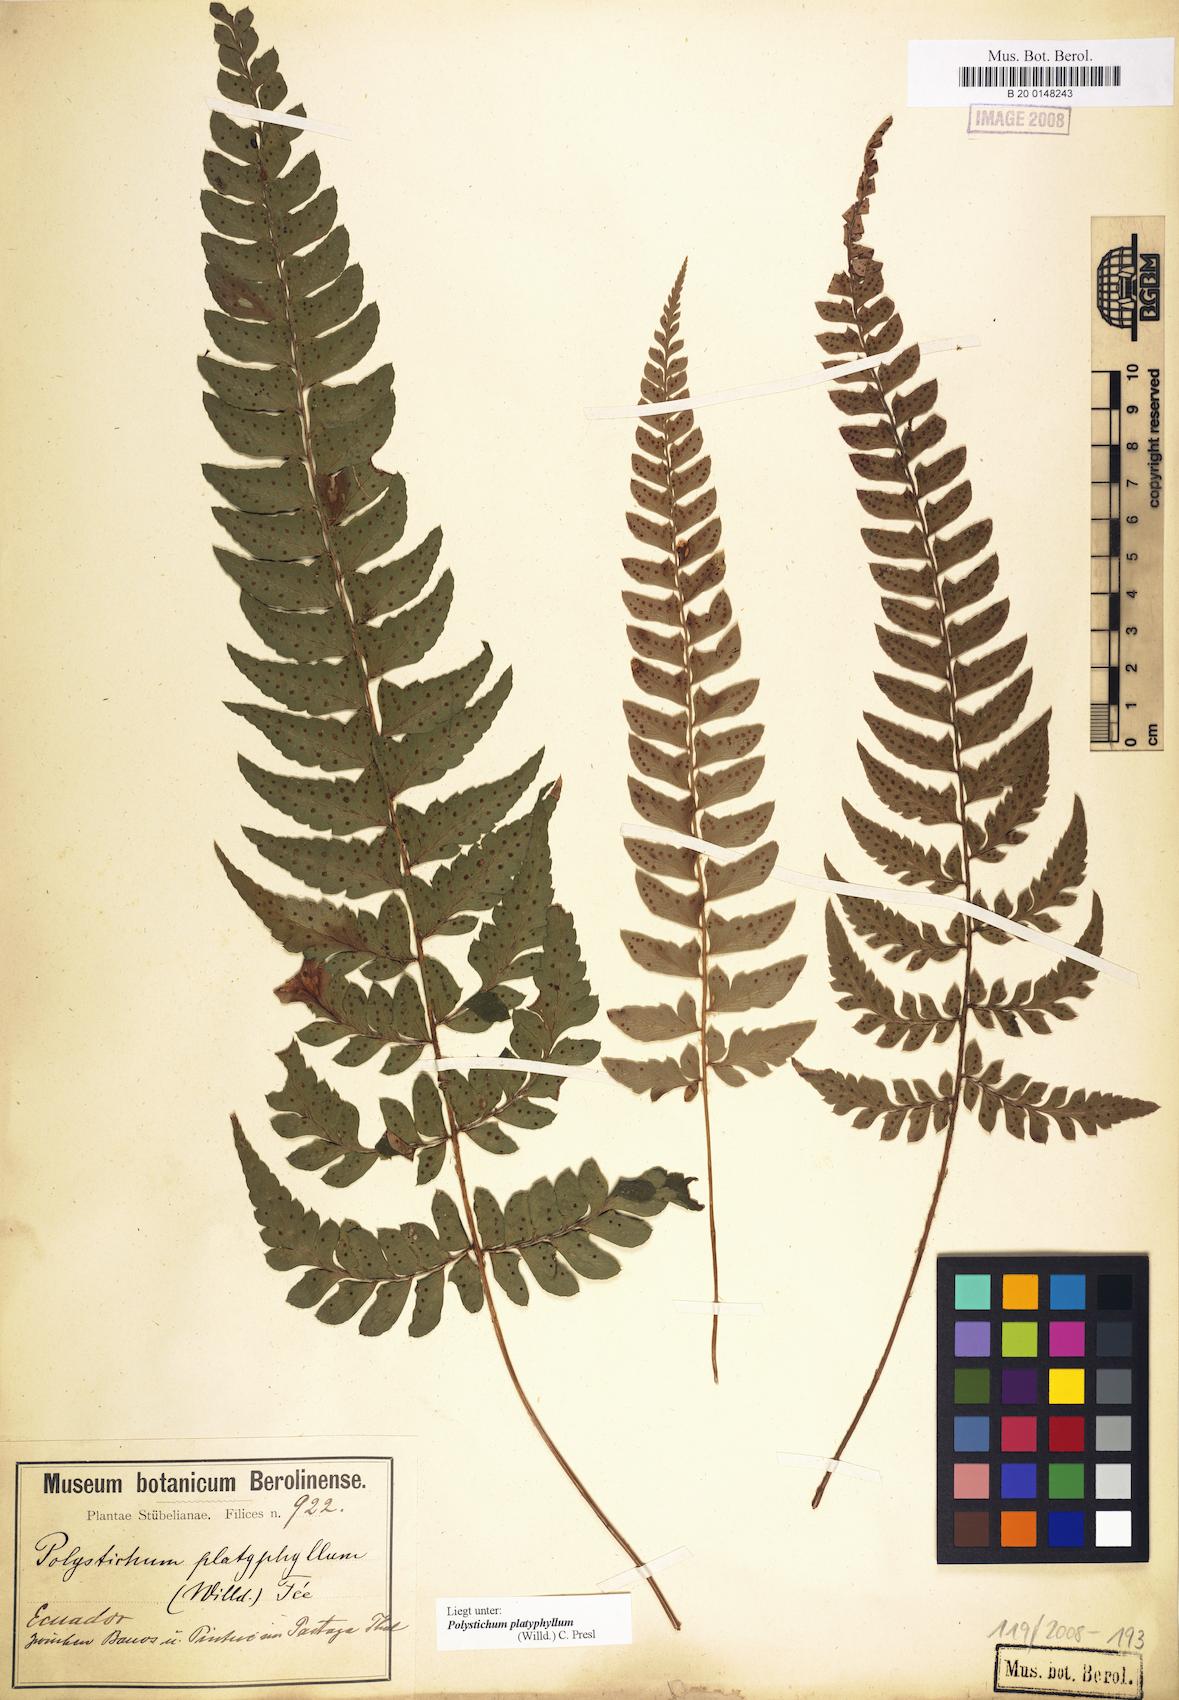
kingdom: Plantae
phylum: Tracheophyta
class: Polypodiopsida
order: Polypodiales
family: Dryopteridaceae
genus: Polystichum
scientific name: Polystichum platyphyllum
